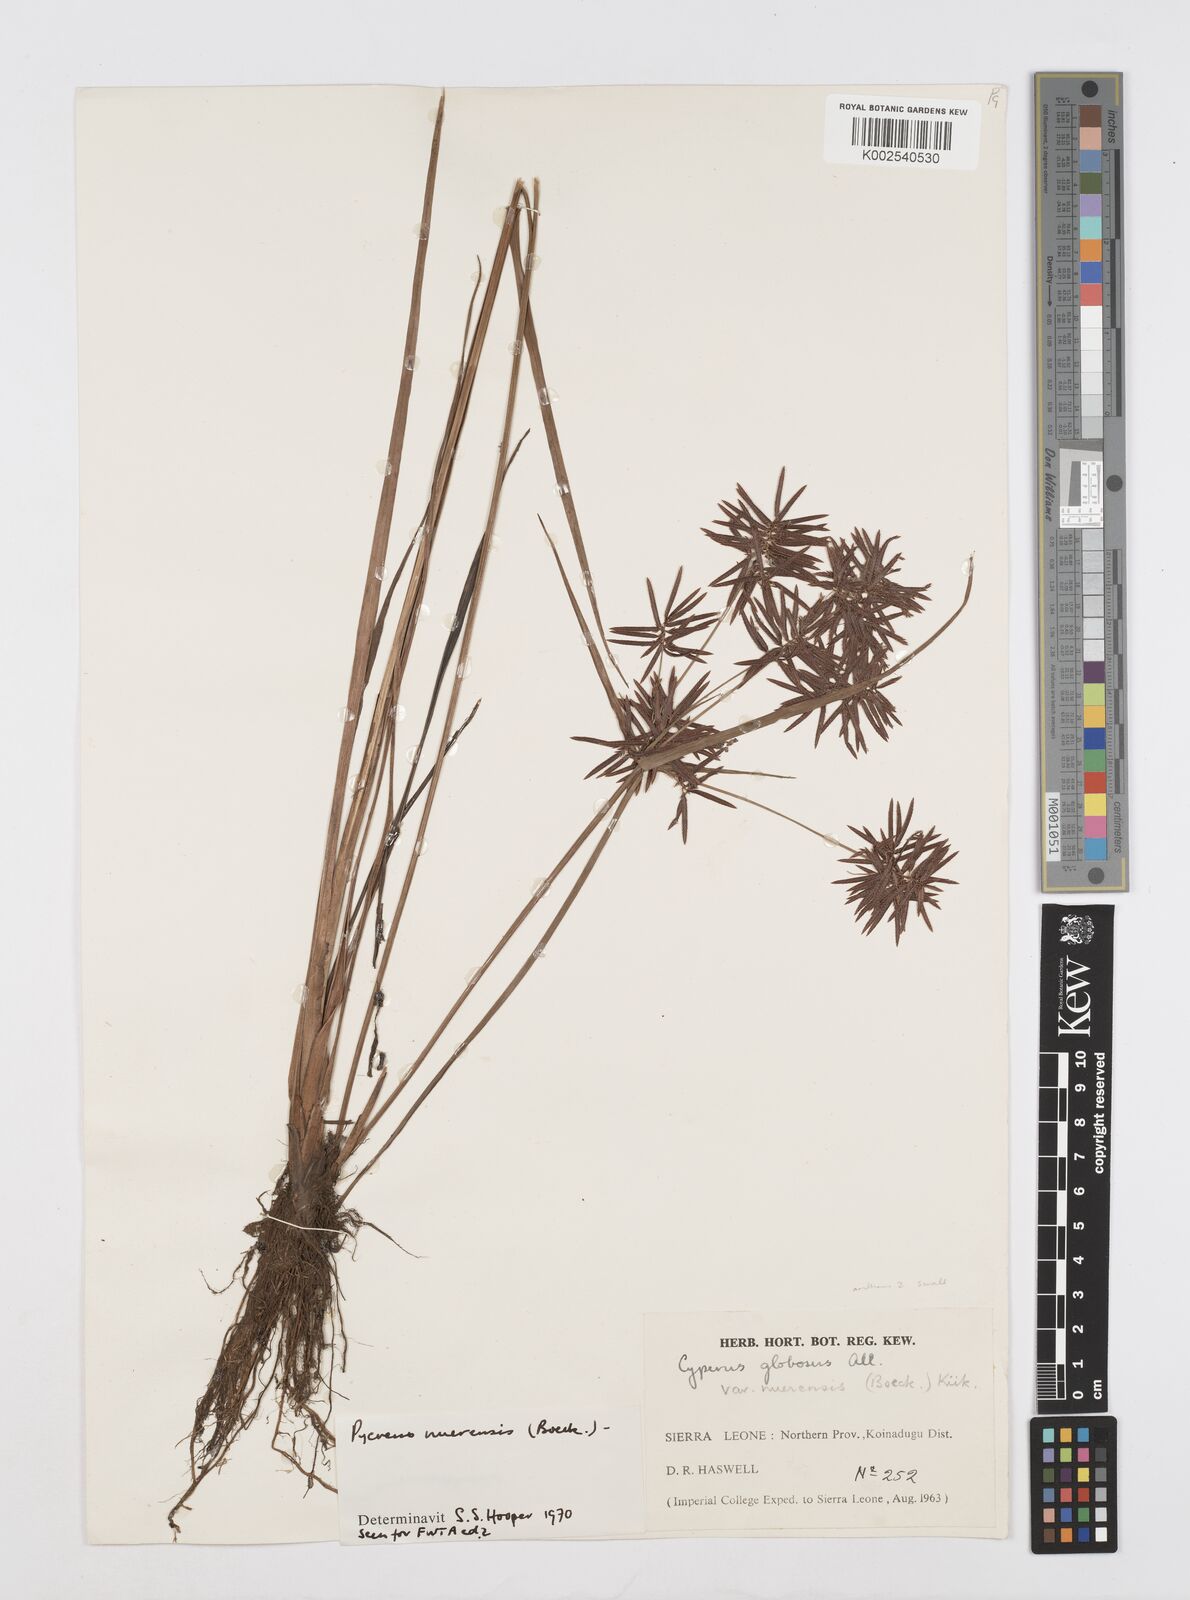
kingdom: Plantae
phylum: Tracheophyta
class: Liliopsida
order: Poales
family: Cyperaceae
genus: Cyperus
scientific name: Cyperus nuerensis
